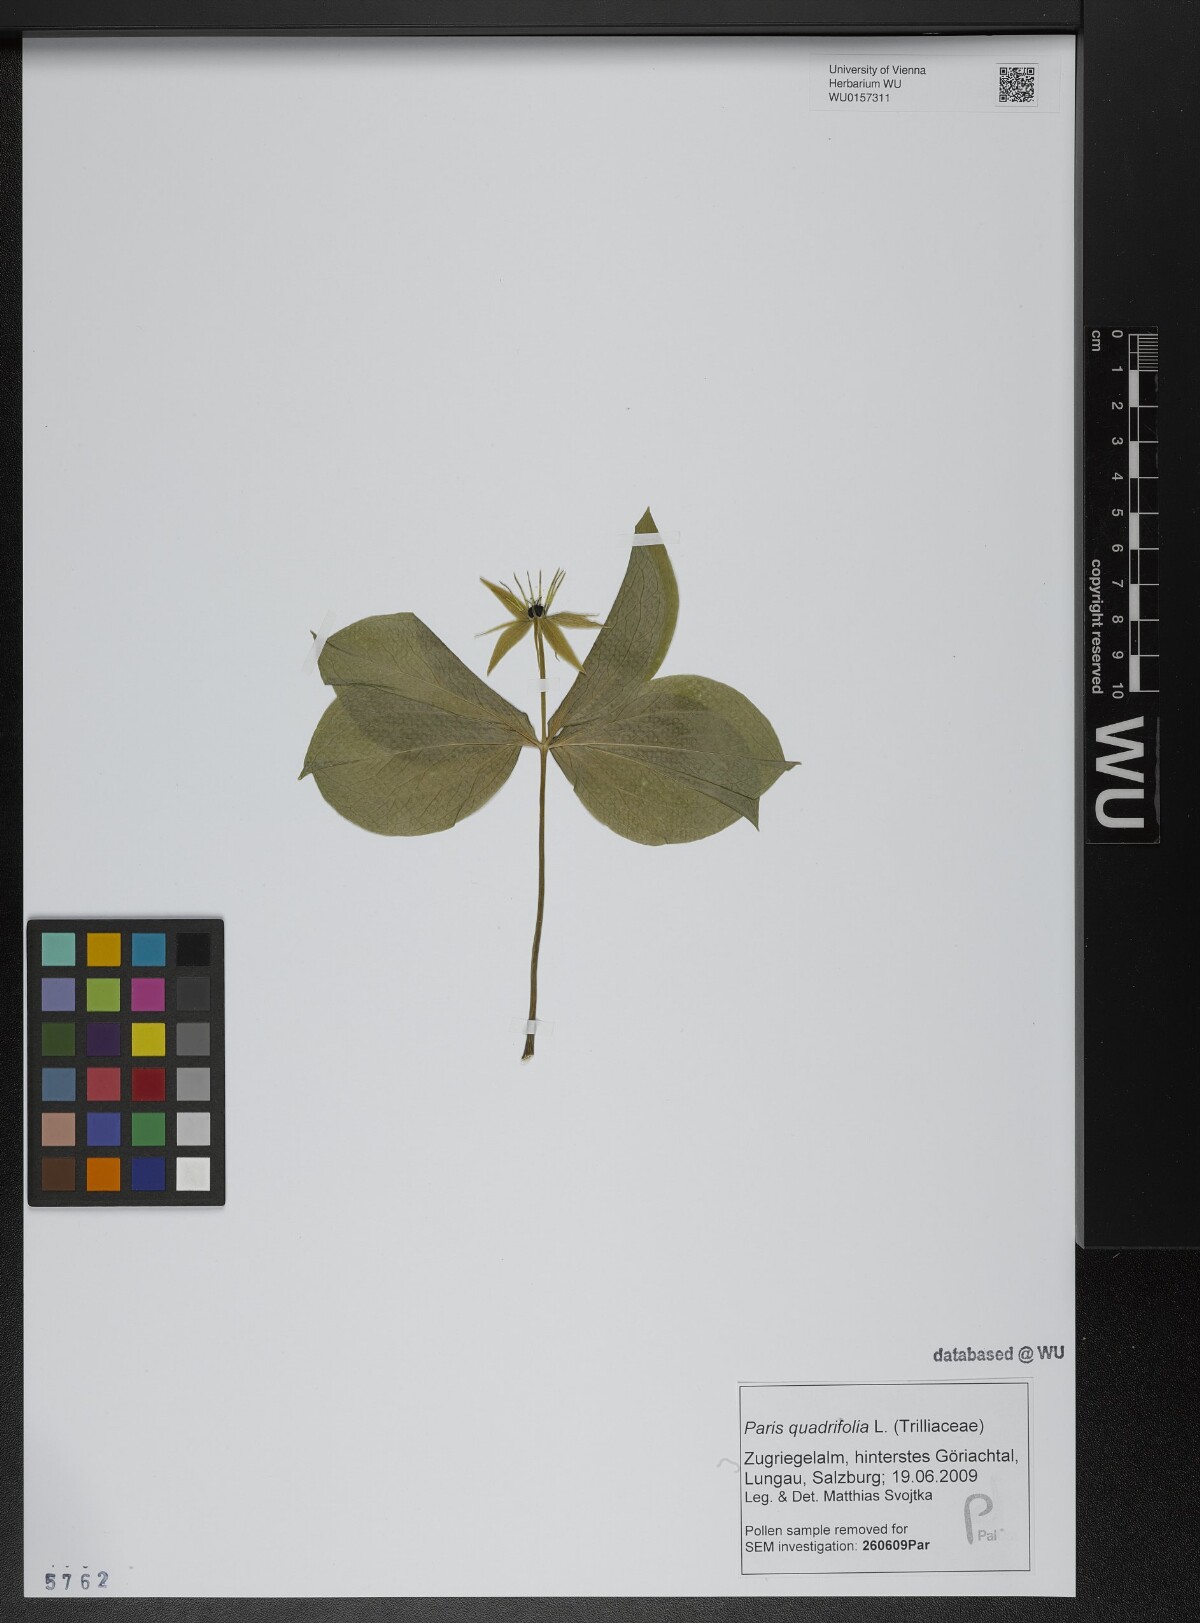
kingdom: Plantae
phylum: Tracheophyta
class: Liliopsida
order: Liliales
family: Melanthiaceae
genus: Paris
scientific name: Paris quadrifolia
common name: Herb-paris
